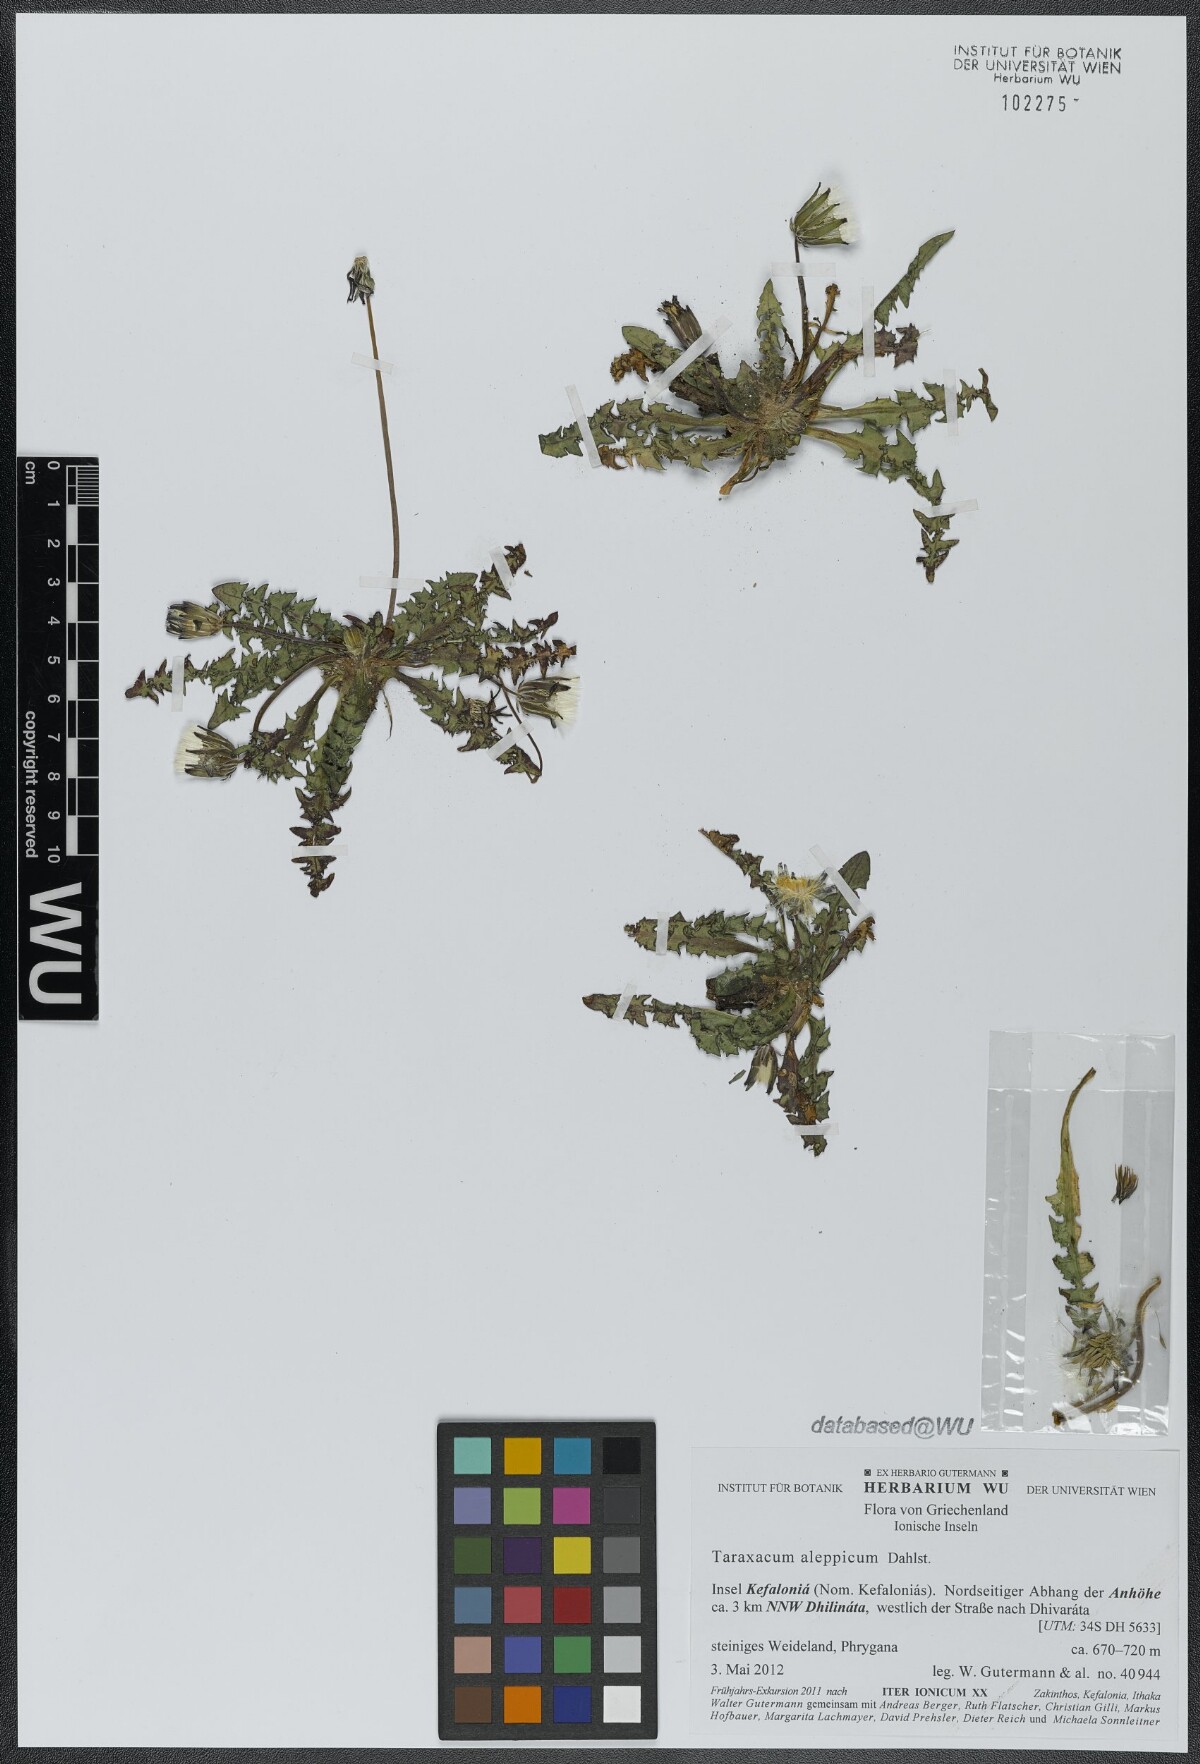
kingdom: Plantae
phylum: Tracheophyta
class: Magnoliopsida
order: Asterales
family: Asteraceae
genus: Taraxacum
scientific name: Taraxacum aleppicum
